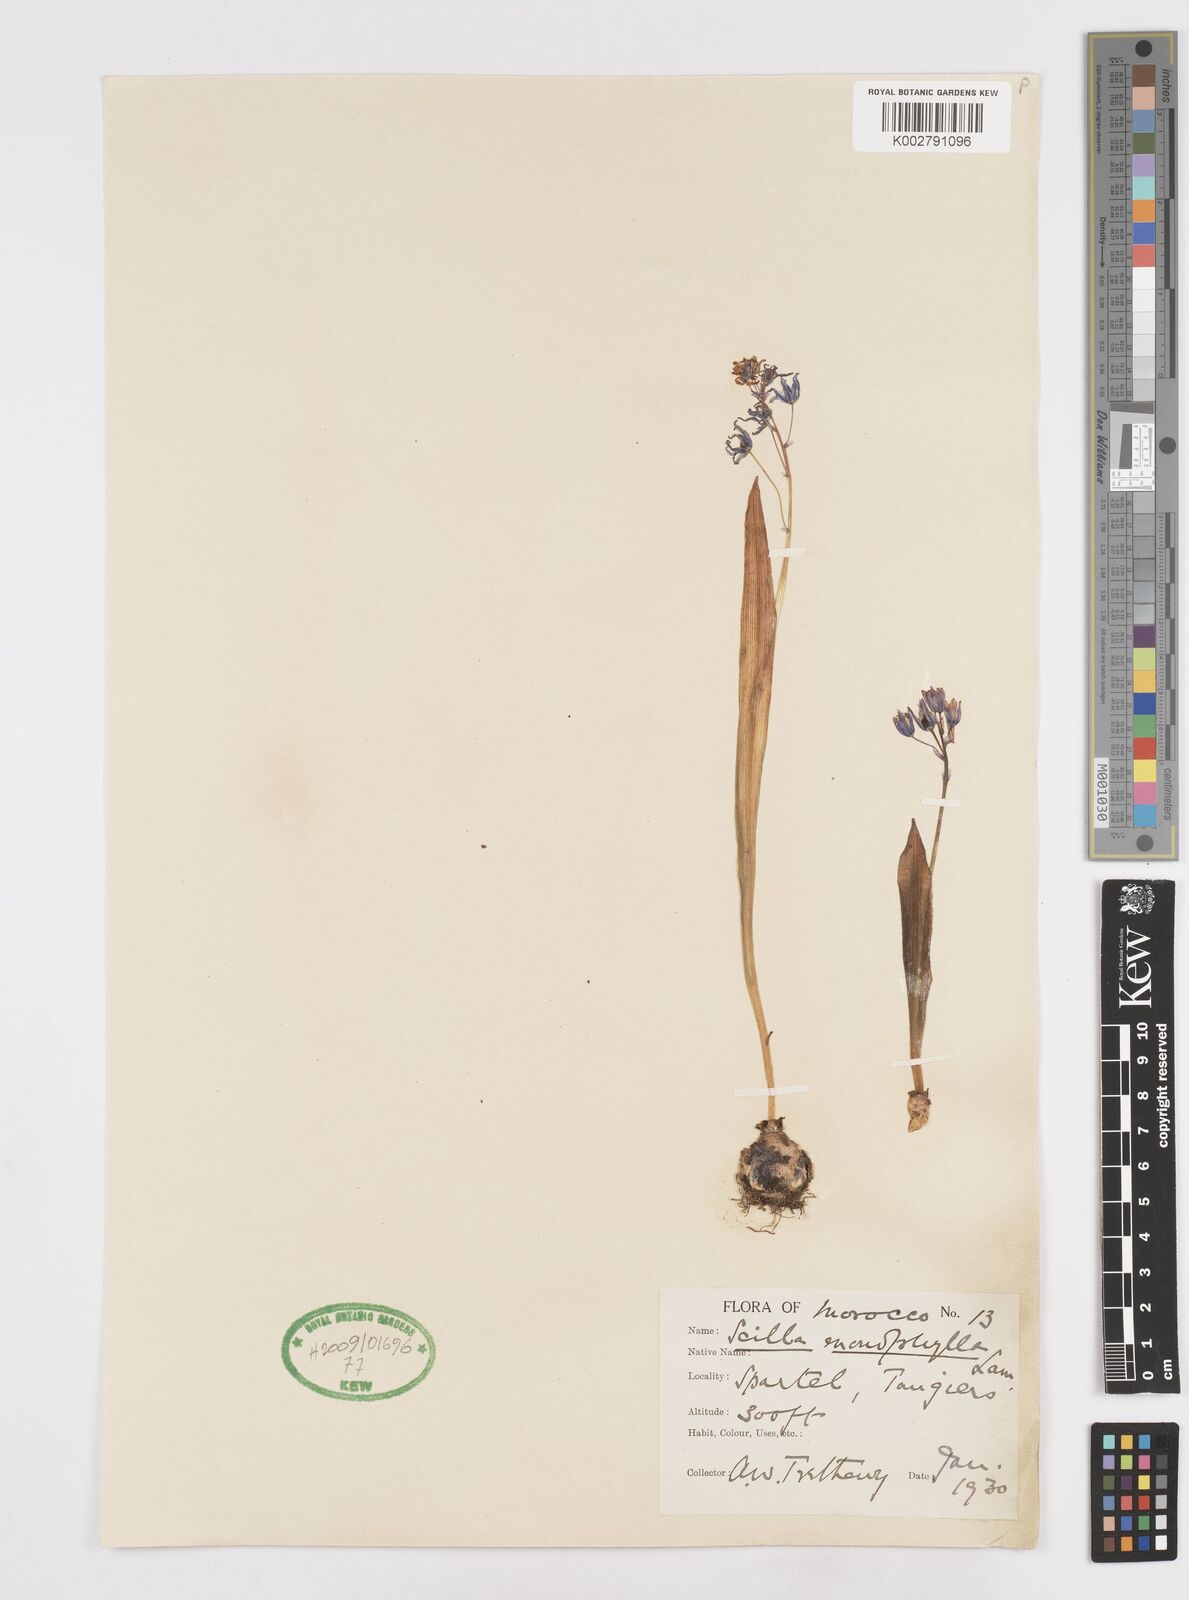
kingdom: Plantae
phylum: Tracheophyta
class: Liliopsida
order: Asparagales
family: Asparagaceae
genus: Scilla
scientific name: Scilla monophyllos
